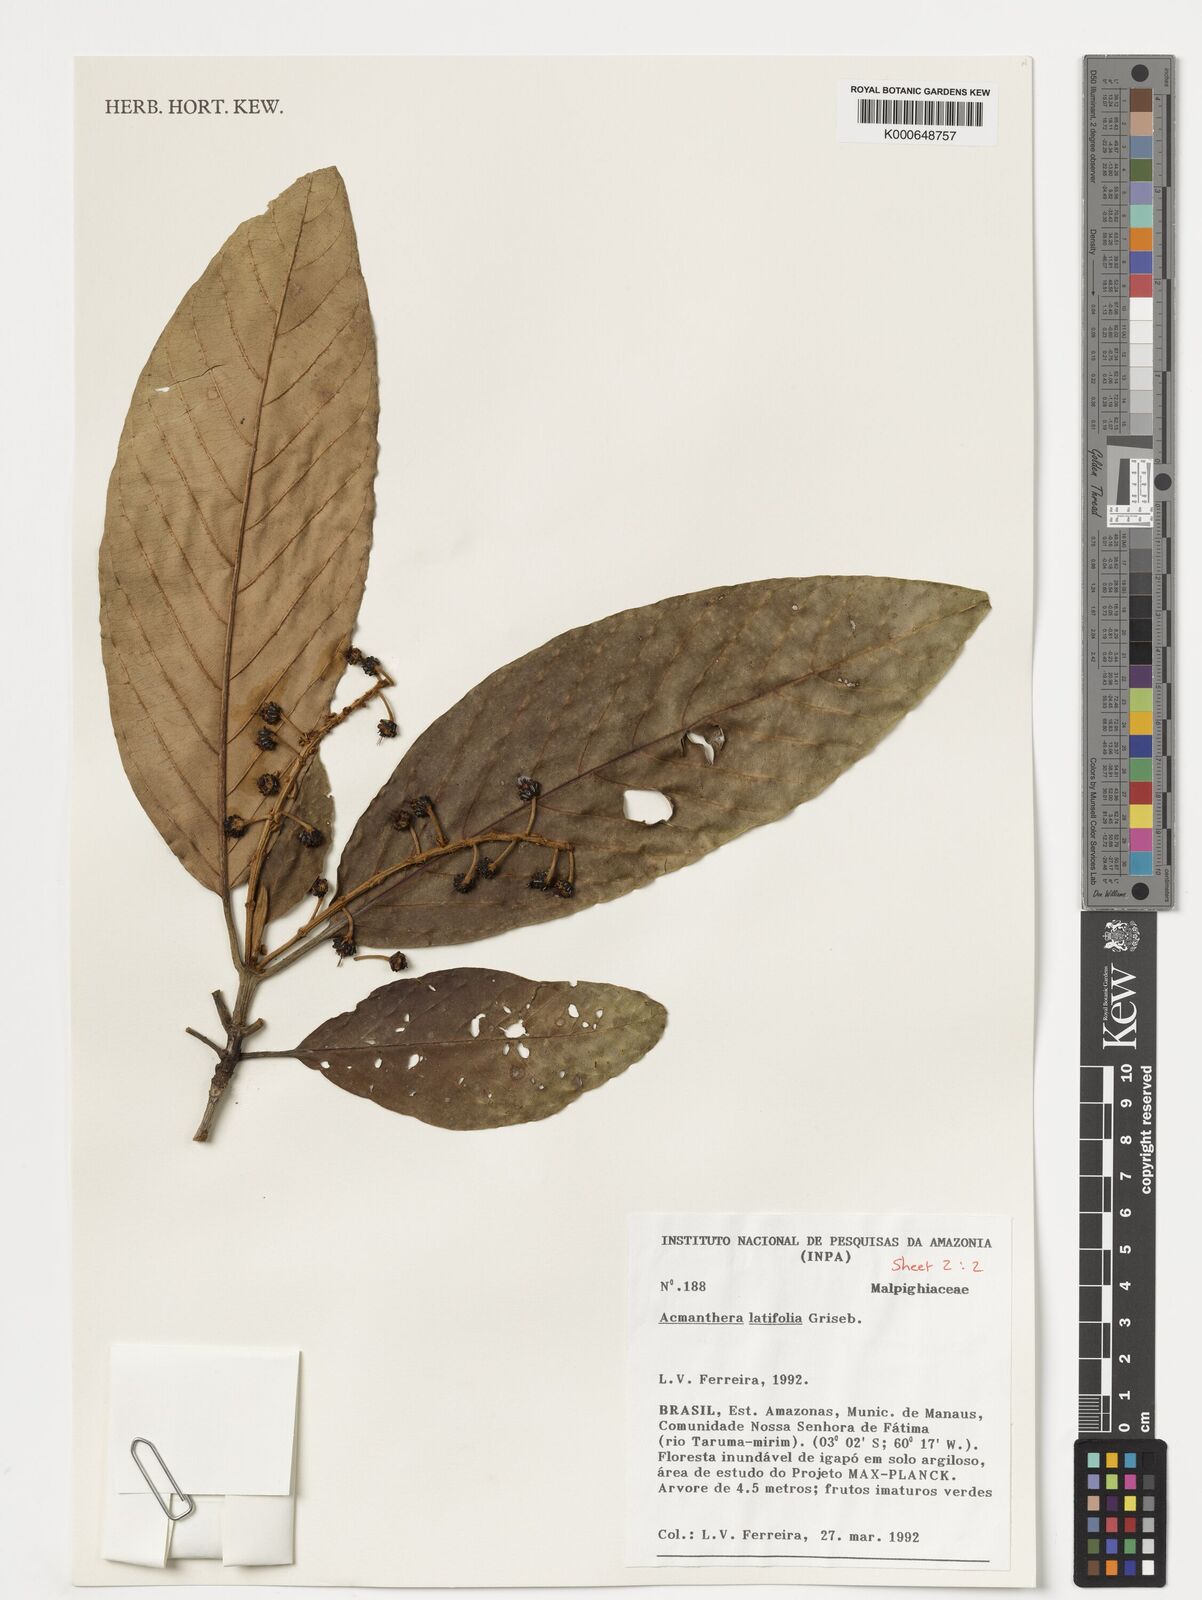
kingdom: Plantae
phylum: Tracheophyta
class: Magnoliopsida
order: Malpighiales
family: Malpighiaceae
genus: Acmanthera
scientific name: Acmanthera latifolia
